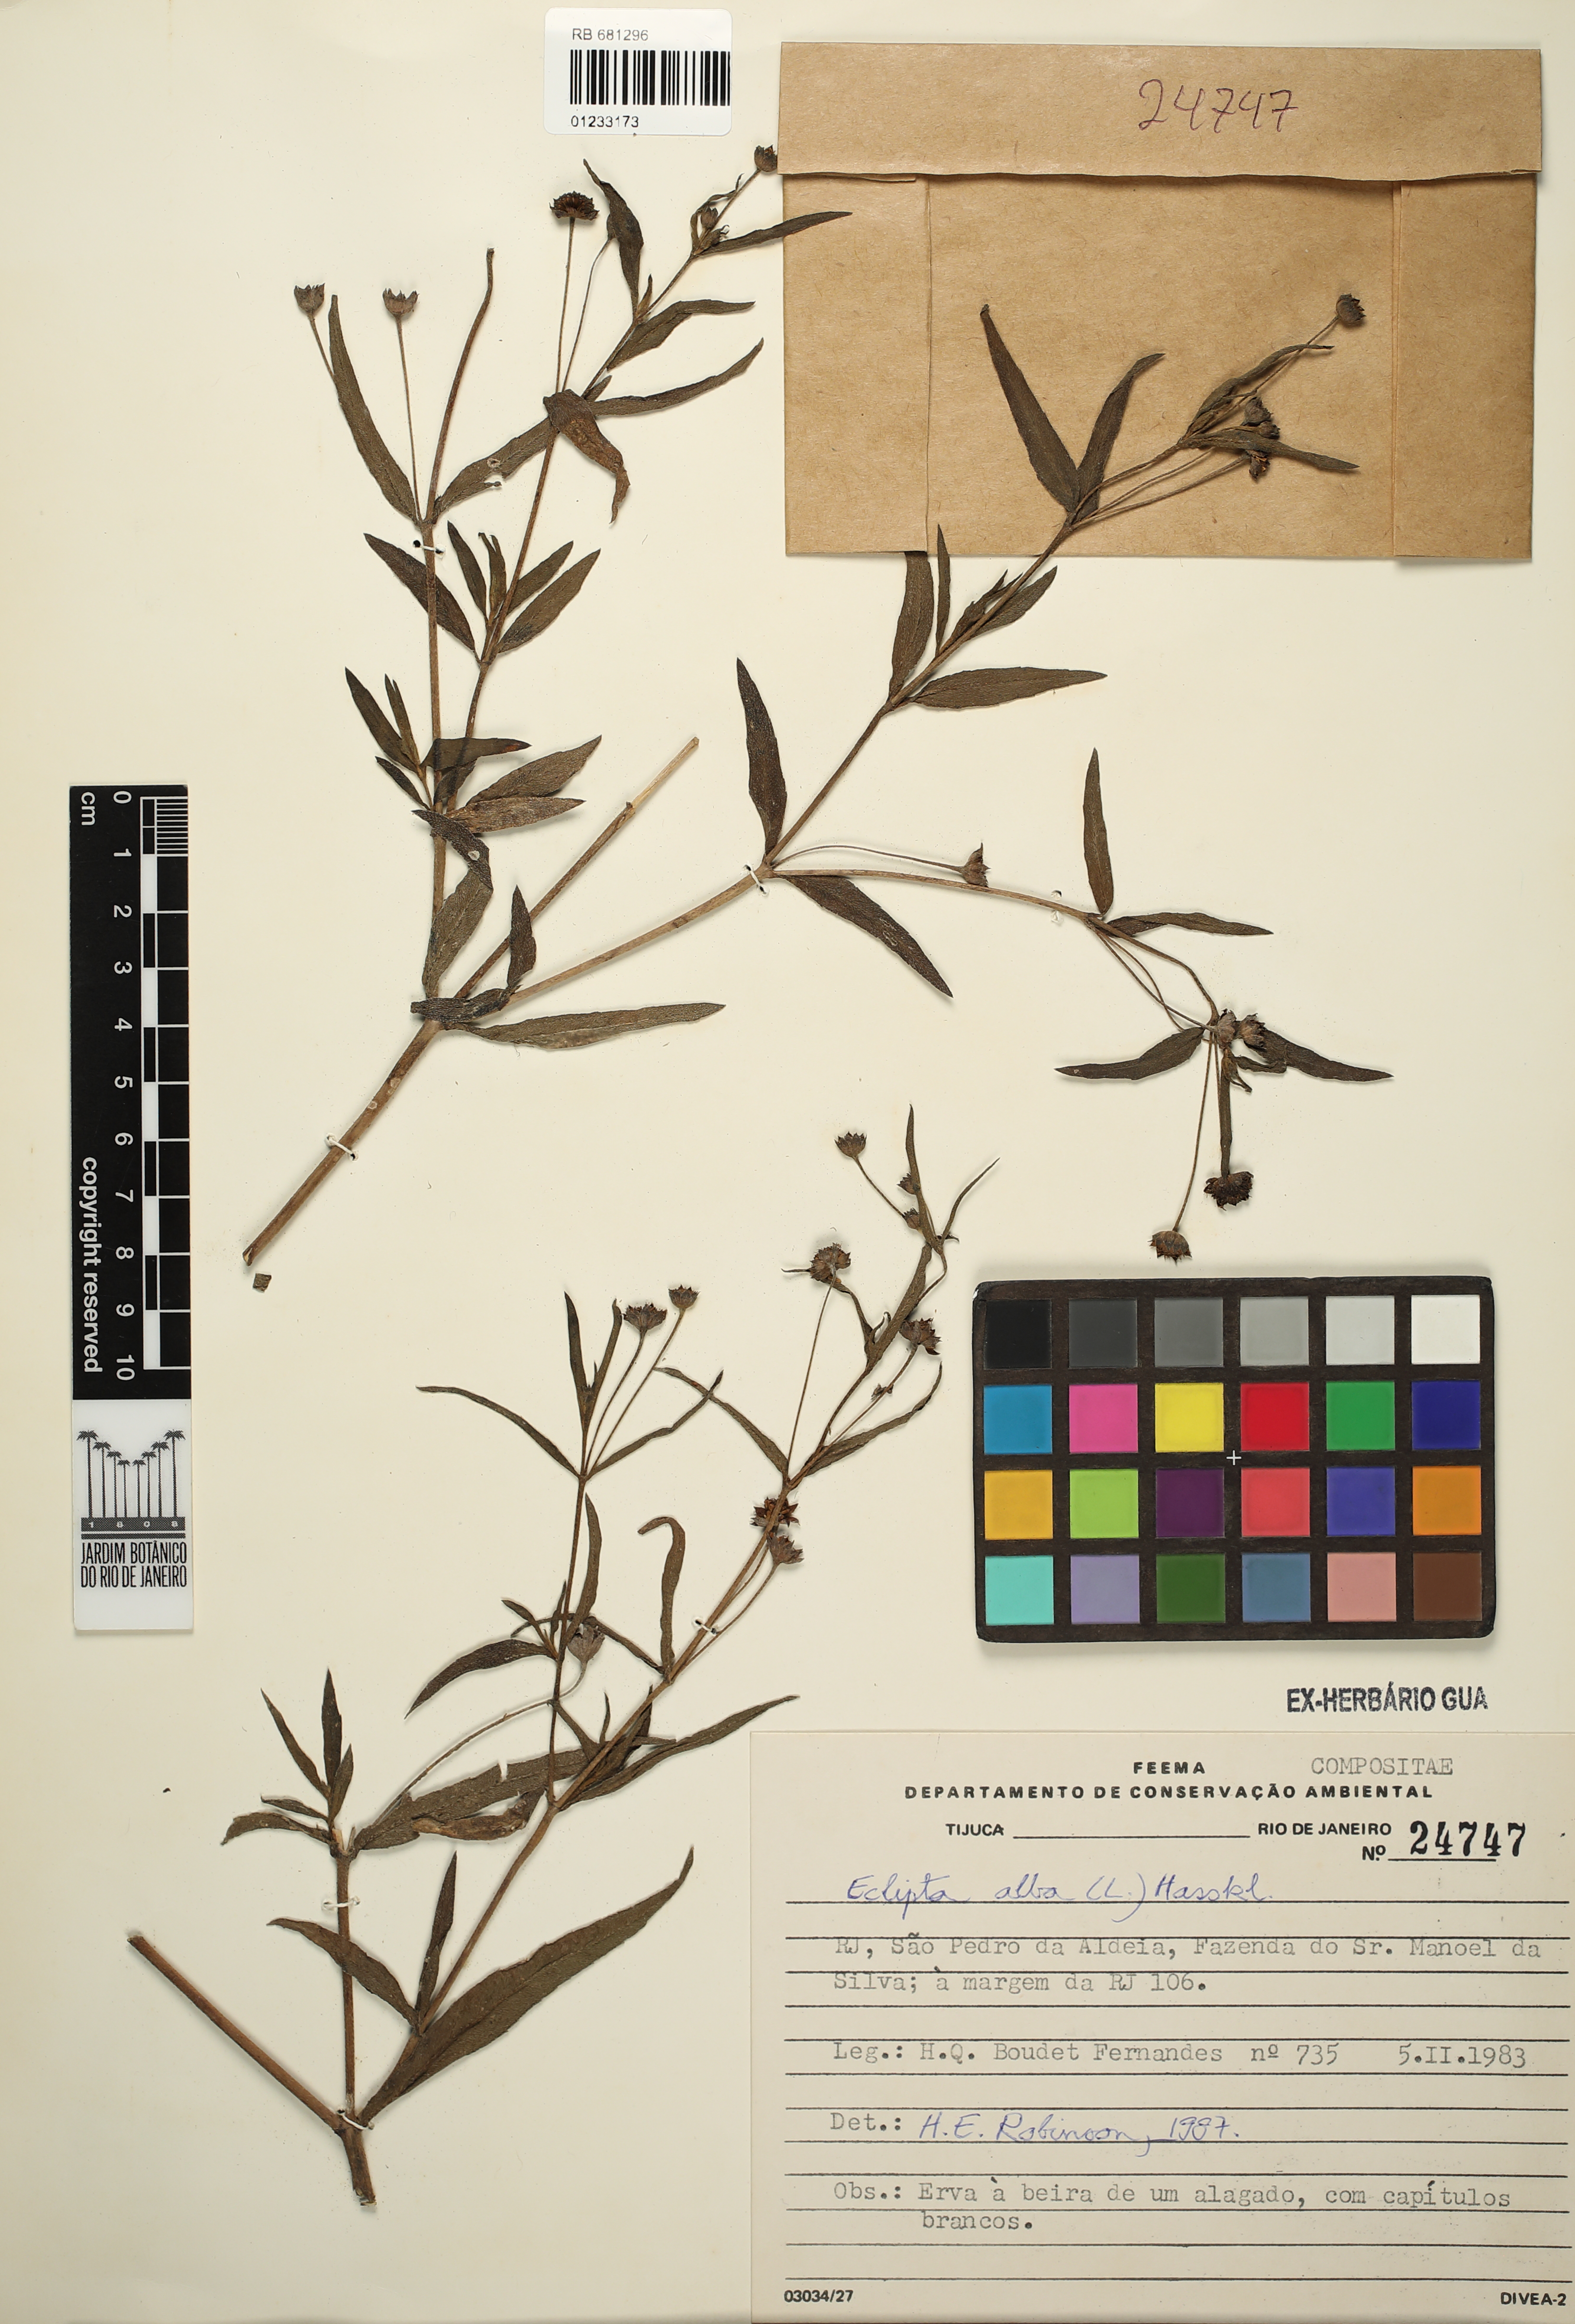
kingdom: Plantae
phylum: Tracheophyta
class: Magnoliopsida
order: Asterales
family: Asteraceae
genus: Eclipta
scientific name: Eclipta alba
